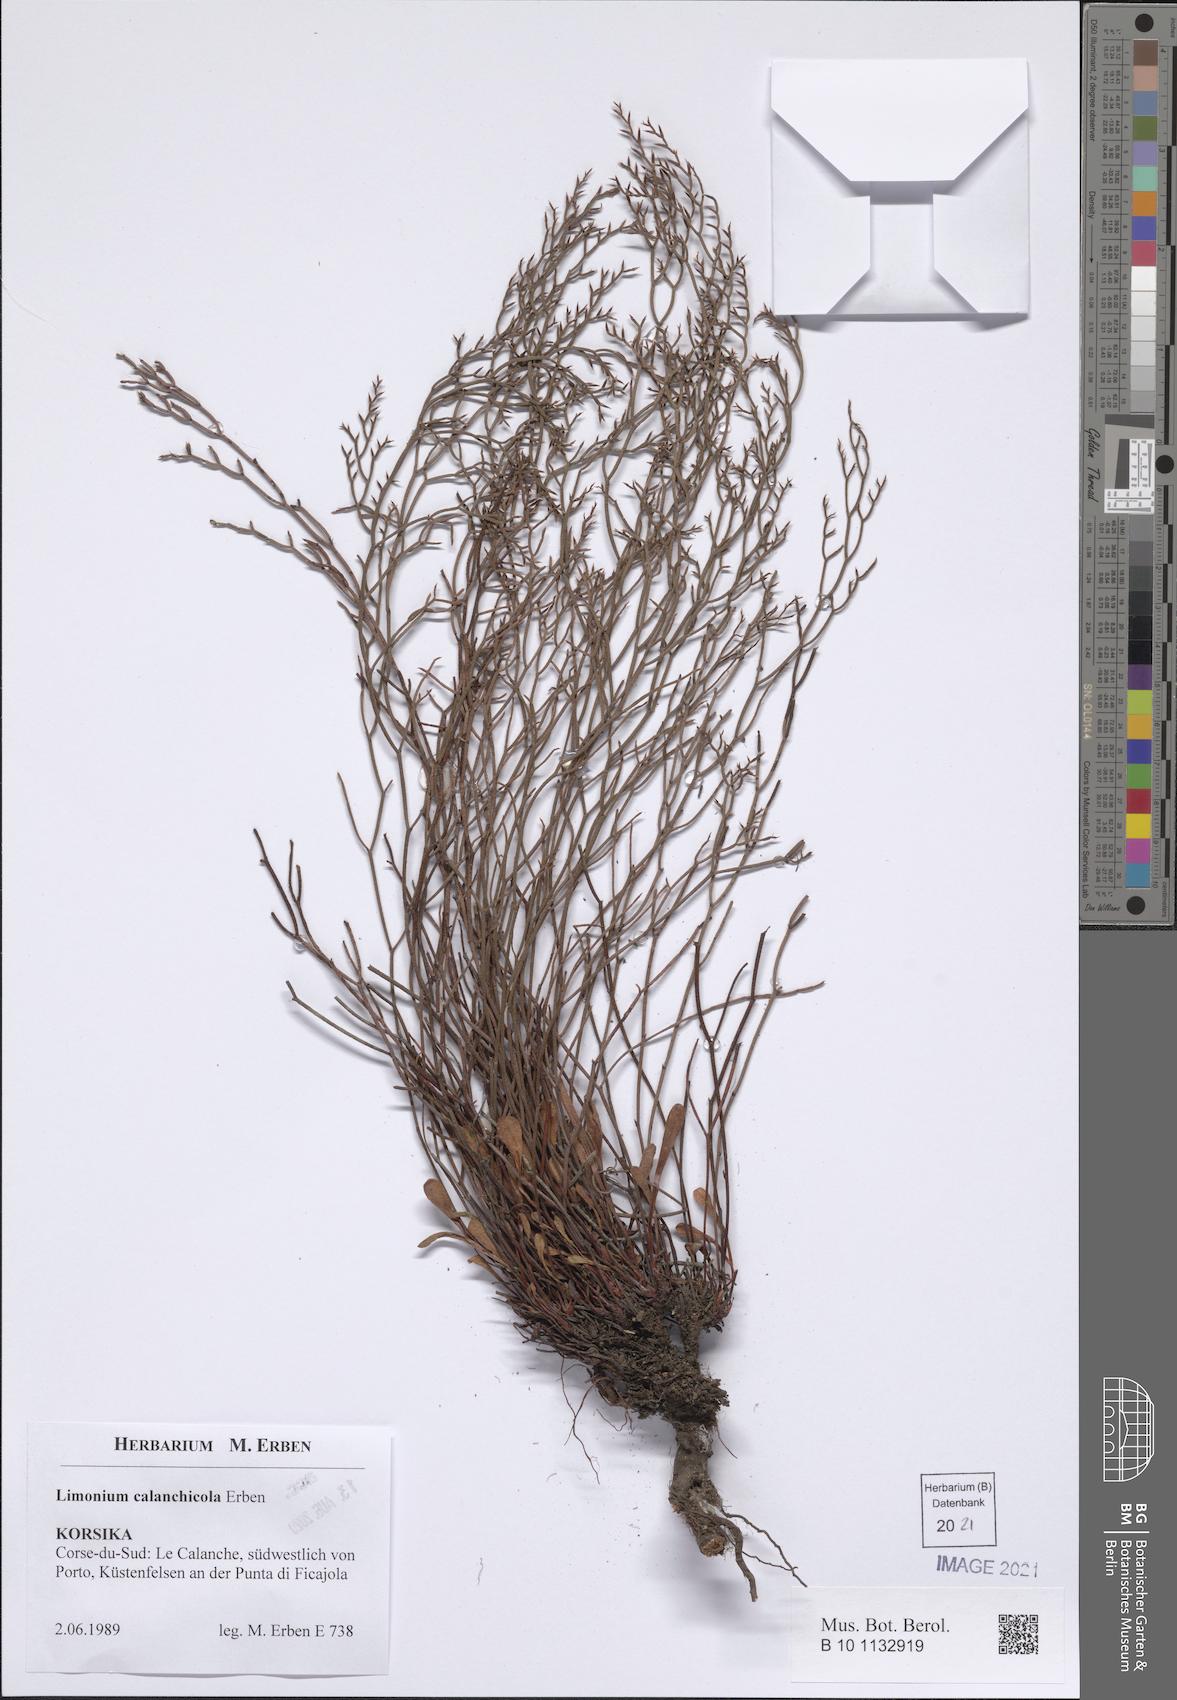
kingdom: Plantae
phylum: Tracheophyta
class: Magnoliopsida
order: Caryophyllales
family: Plumbaginaceae
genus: Limonium
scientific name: Limonium calanchicola
